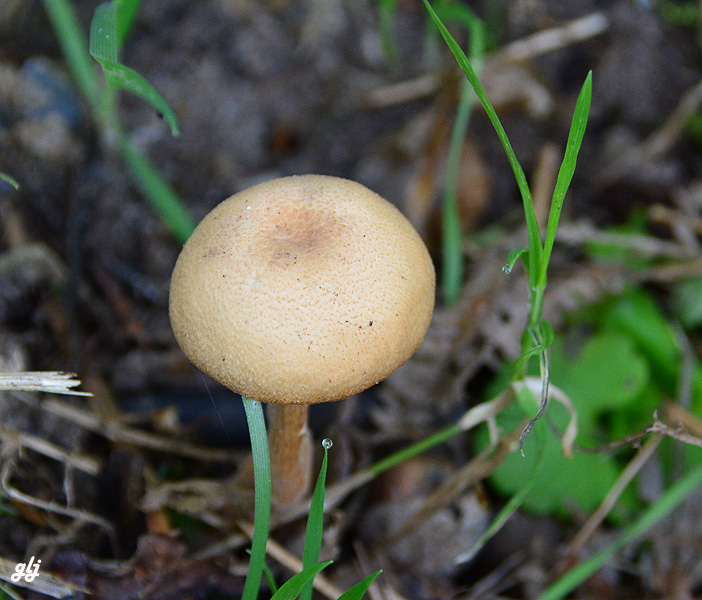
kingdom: Fungi
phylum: Basidiomycota
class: Agaricomycetes
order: Agaricales
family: Hydnangiaceae
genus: Laccaria
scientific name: Laccaria
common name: ametysthat
